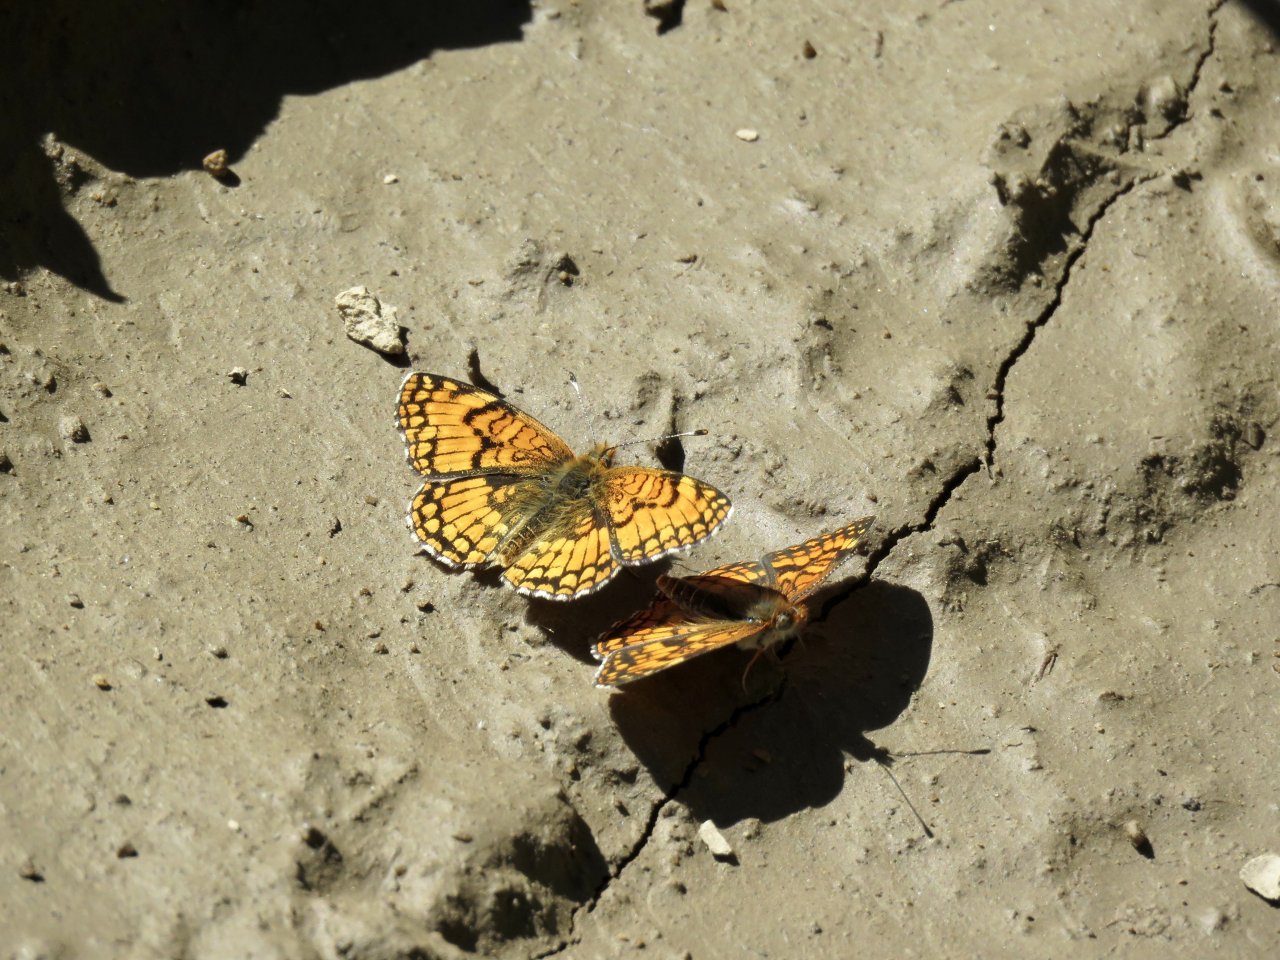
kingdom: Animalia
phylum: Arthropoda
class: Insecta
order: Lepidoptera
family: Nymphalidae
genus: Chlosyne
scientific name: Chlosyne palla
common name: Northern Checkerspot
